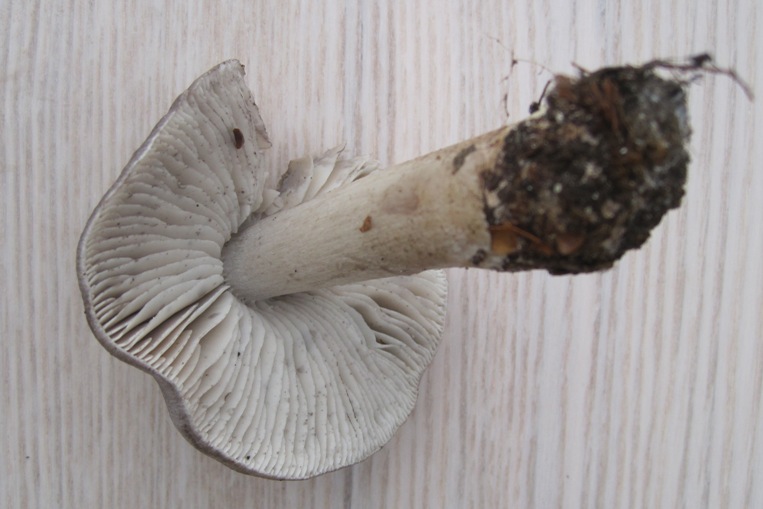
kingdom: Fungi
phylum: Basidiomycota
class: Agaricomycetes
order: Agaricales
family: Tricholomataceae
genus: Tricholoma
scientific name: Tricholoma sciodes
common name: stribet ridderhat
